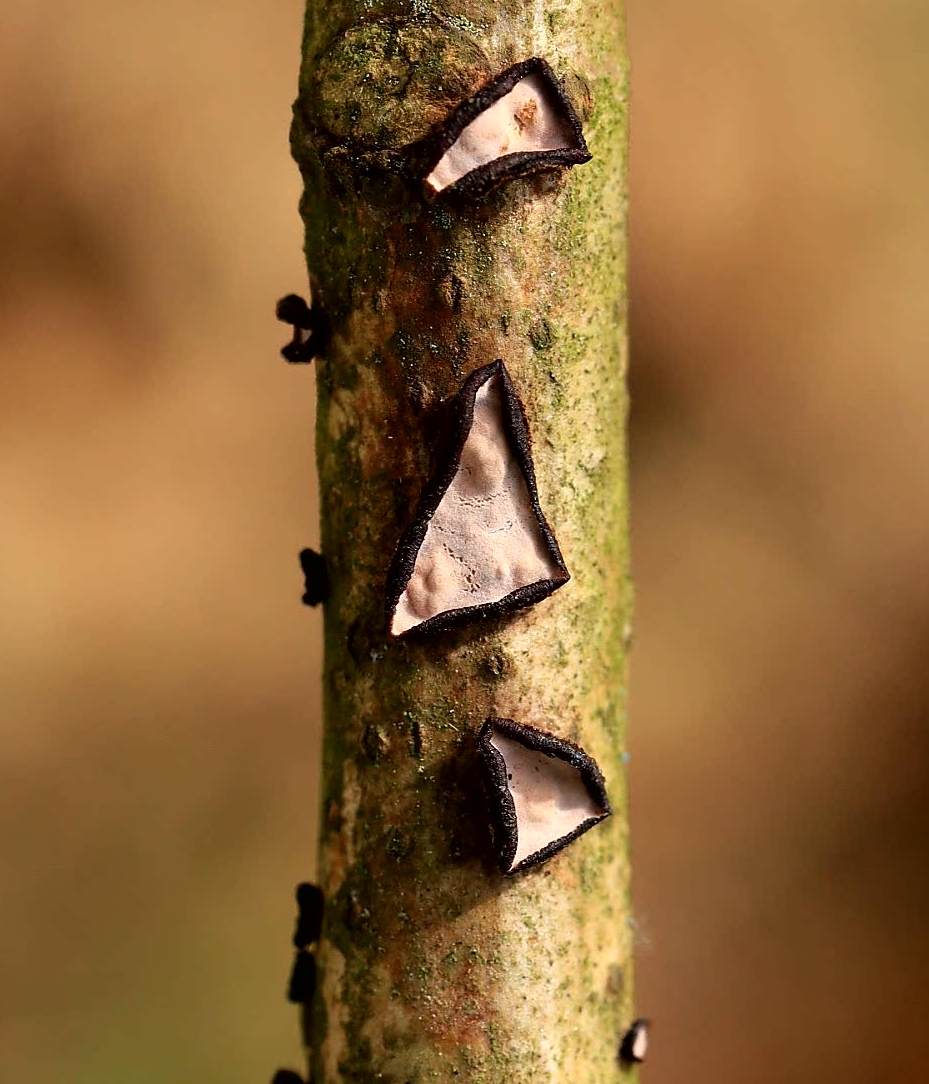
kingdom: Fungi
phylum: Basidiomycota
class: Agaricomycetes
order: Russulales
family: Peniophoraceae
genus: Peniophora
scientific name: Peniophora quercina
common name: ege-voksskind
